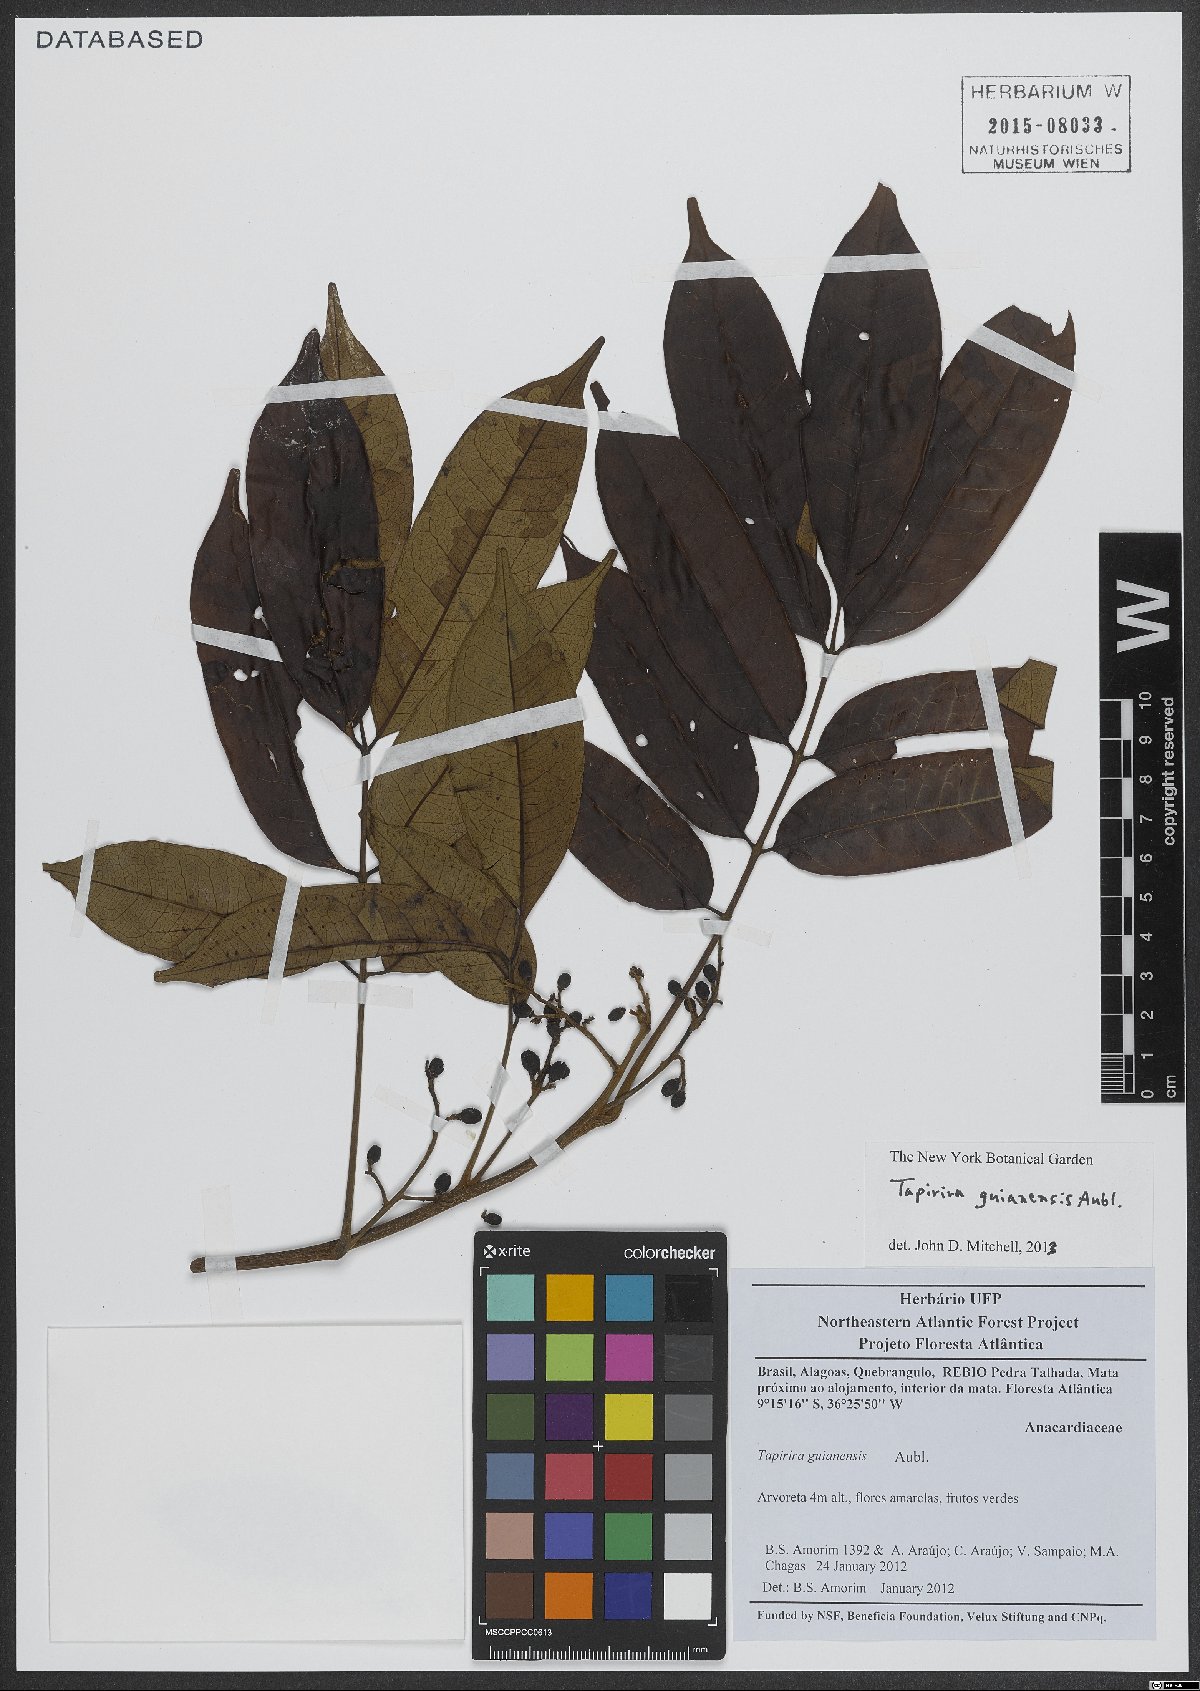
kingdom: Plantae
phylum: Tracheophyta
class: Magnoliopsida
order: Sapindales
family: Anacardiaceae
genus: Tapirira
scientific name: Tapirira guianensis
